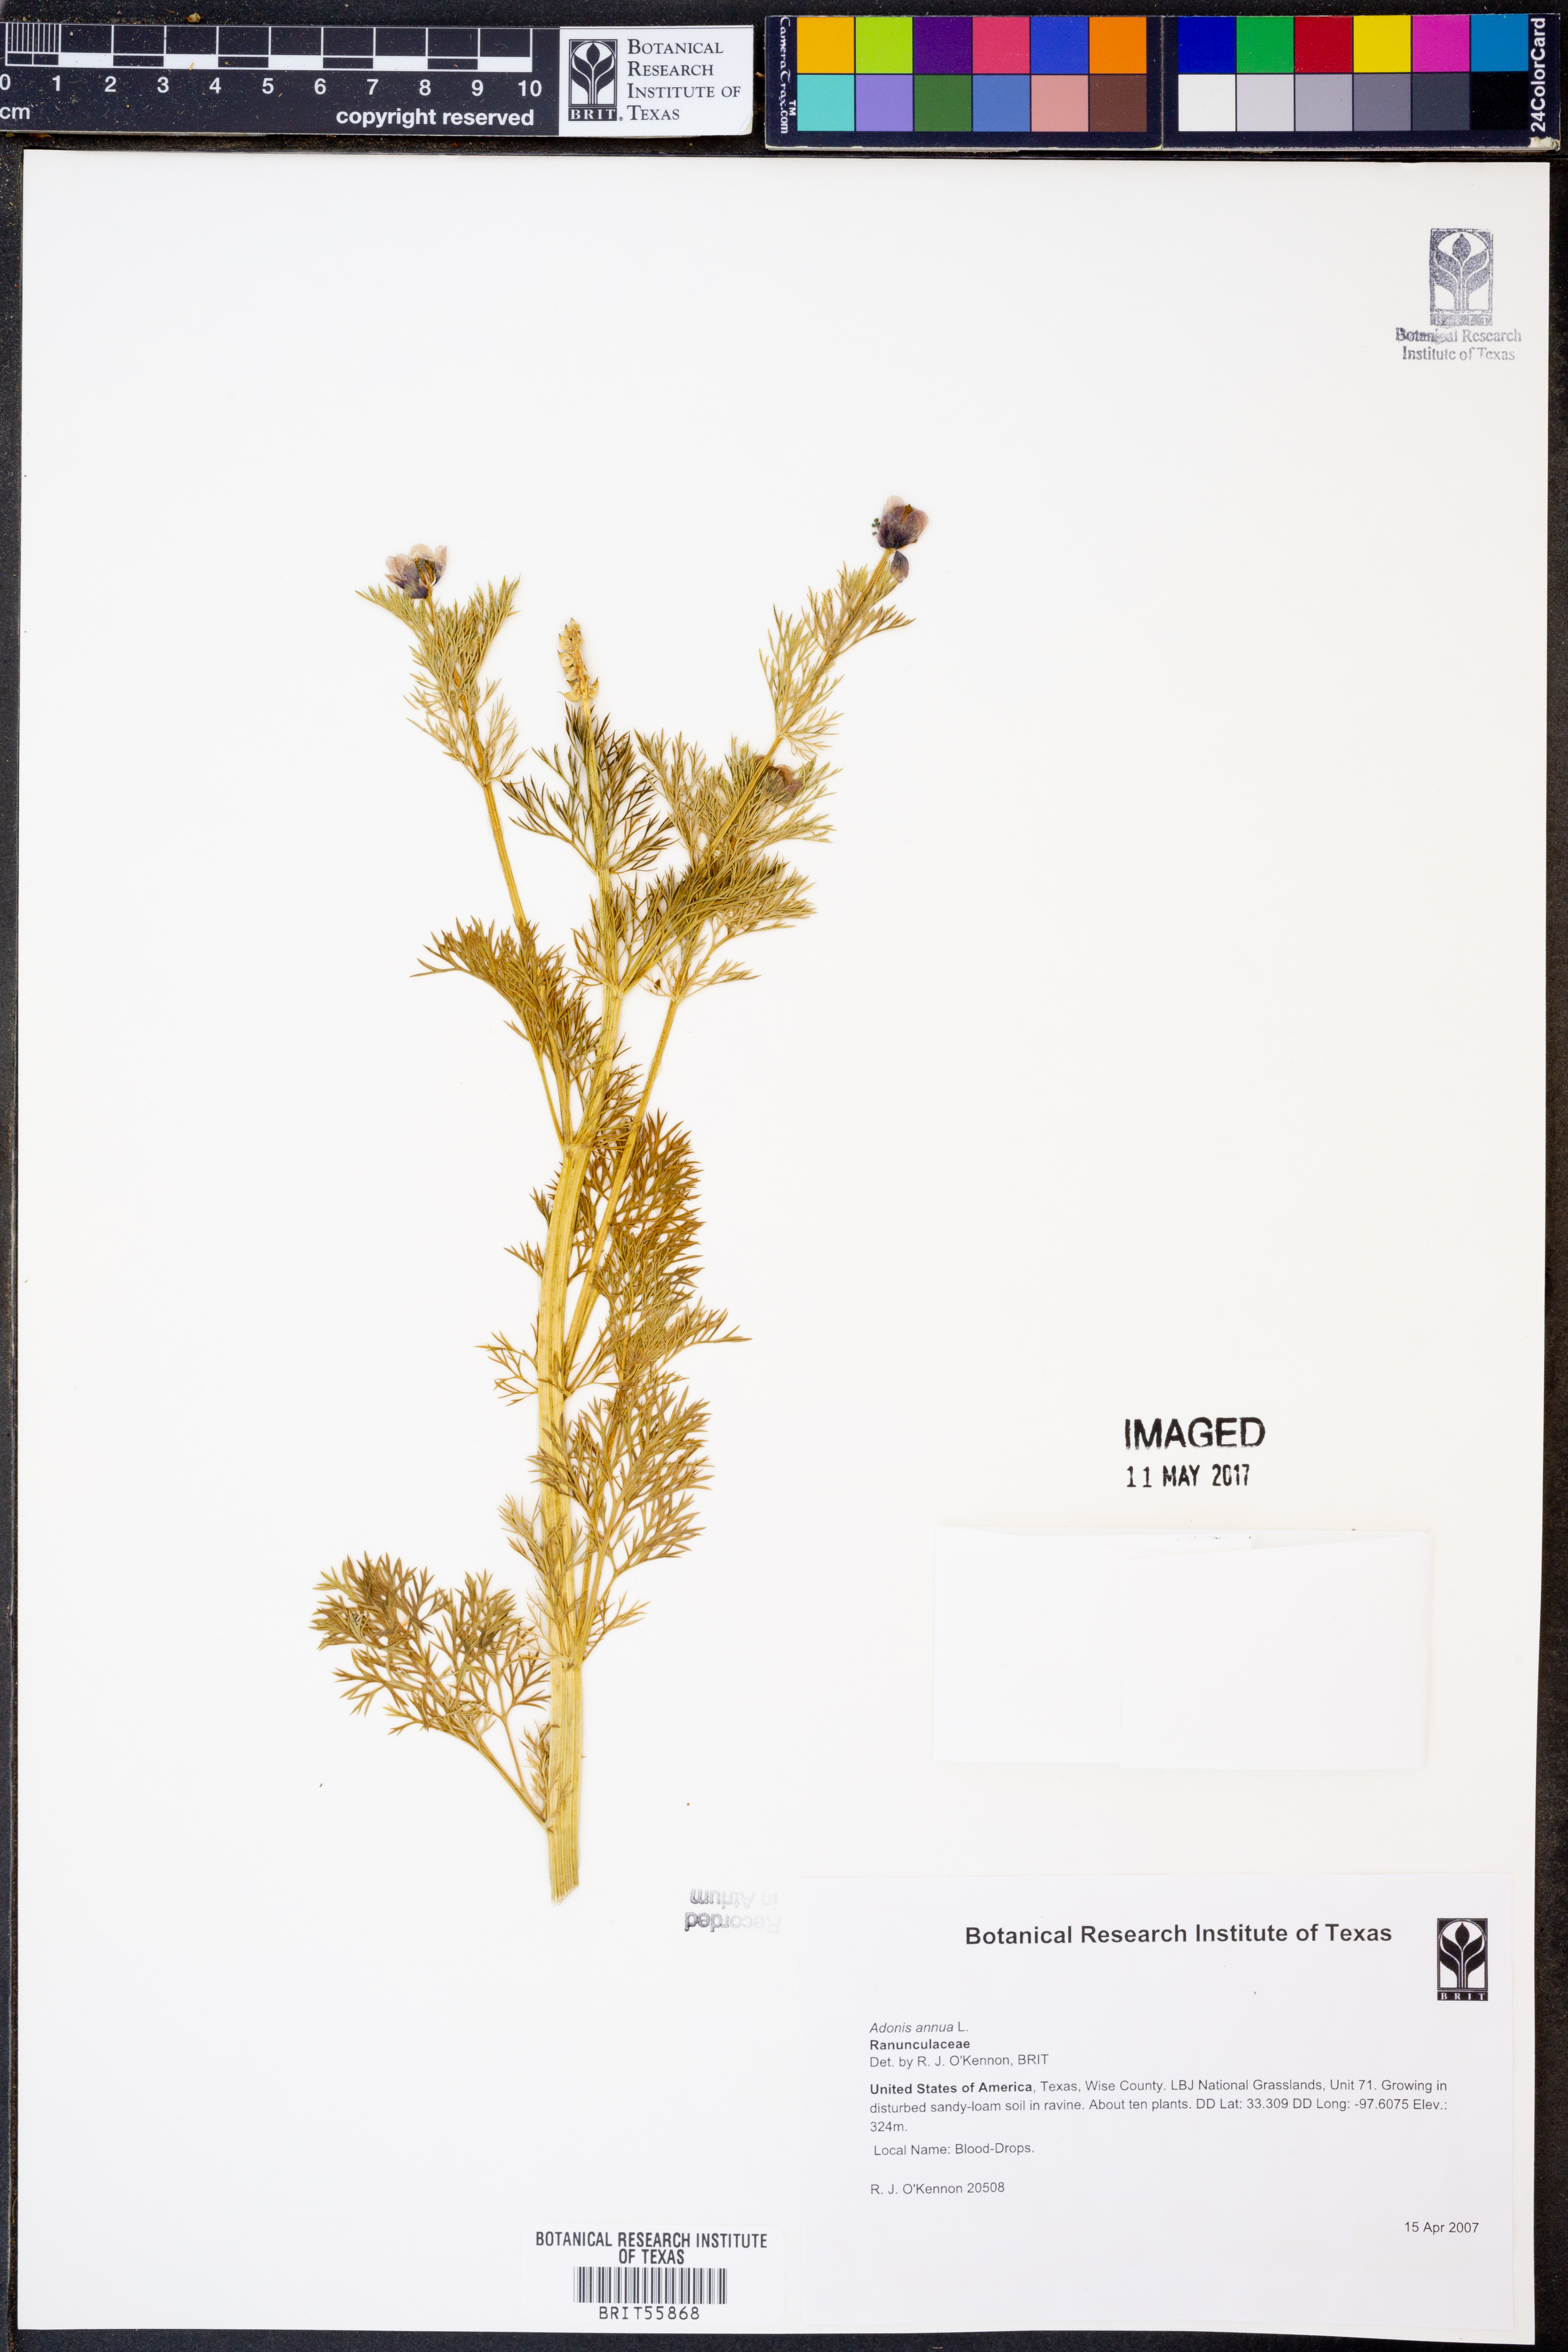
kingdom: Plantae
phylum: Tracheophyta
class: Magnoliopsida
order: Ranunculales
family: Ranunculaceae
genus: Adonis
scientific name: Adonis annua
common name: Pheasant's-eye
